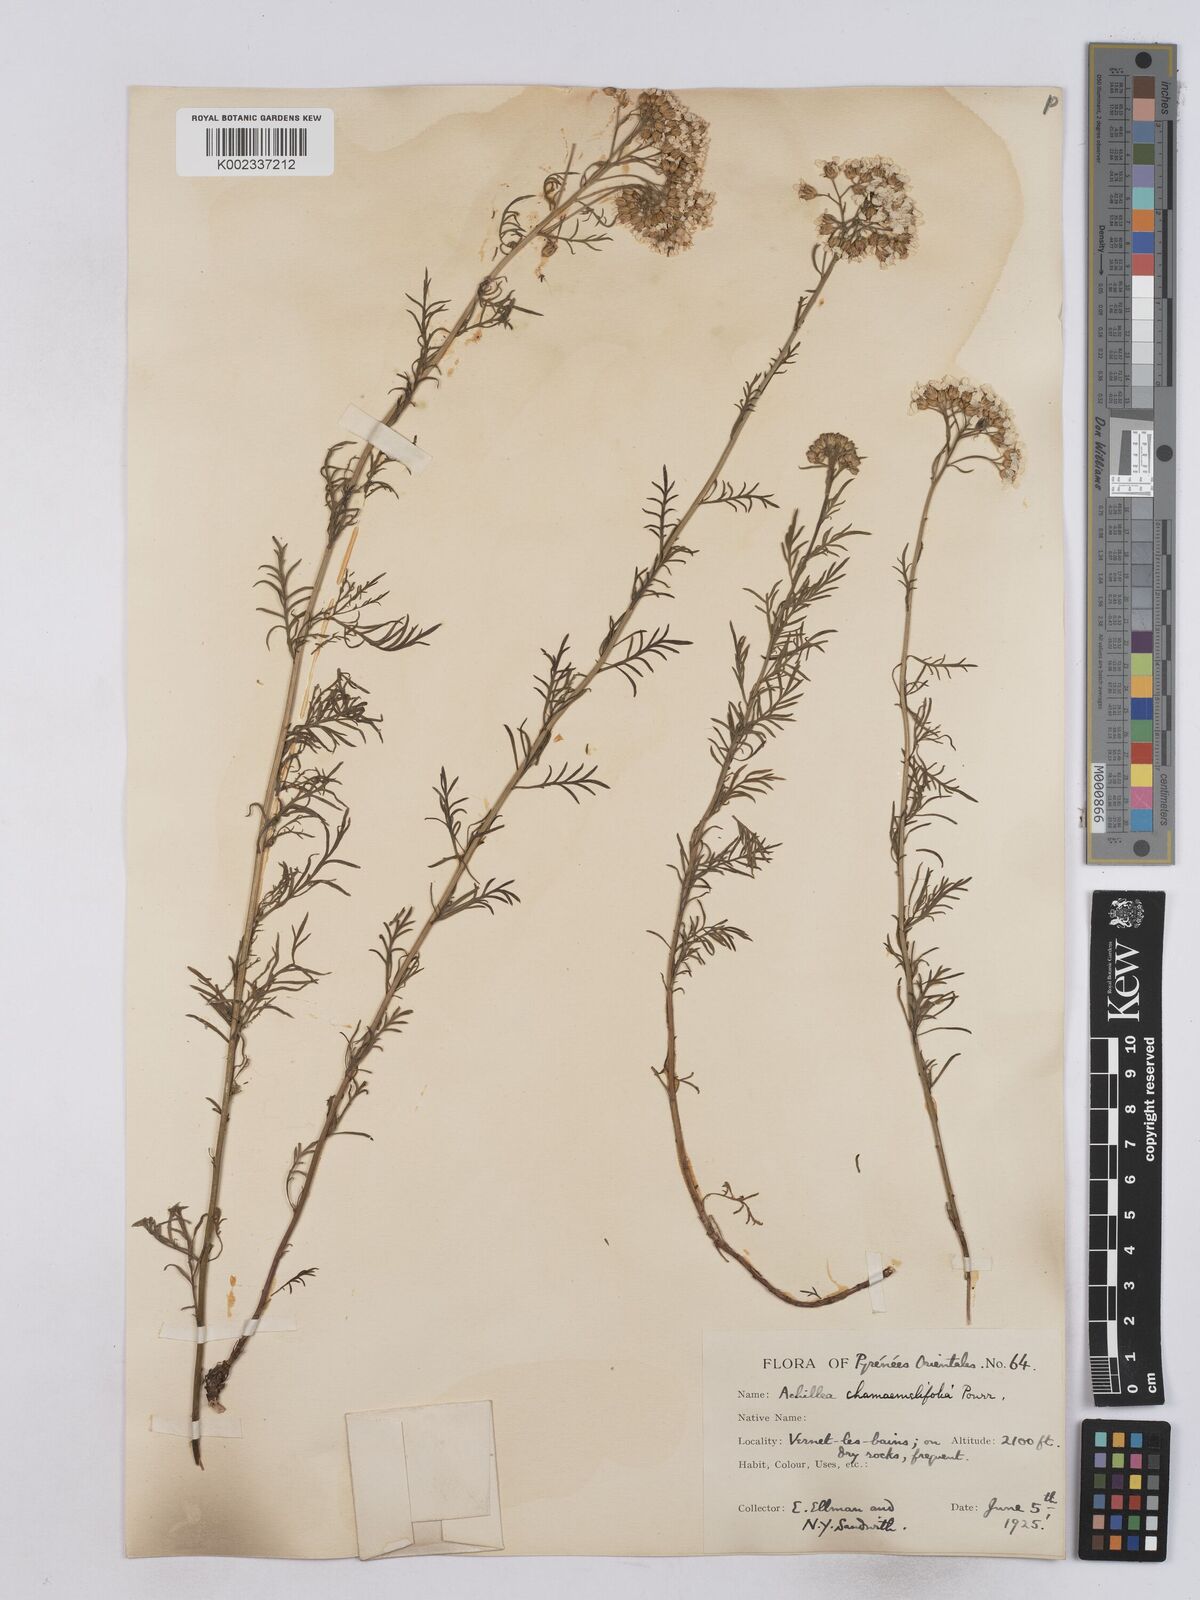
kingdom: Plantae
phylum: Tracheophyta
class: Magnoliopsida
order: Asterales
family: Asteraceae
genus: Achillea
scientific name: Achillea chamaemelifolia
